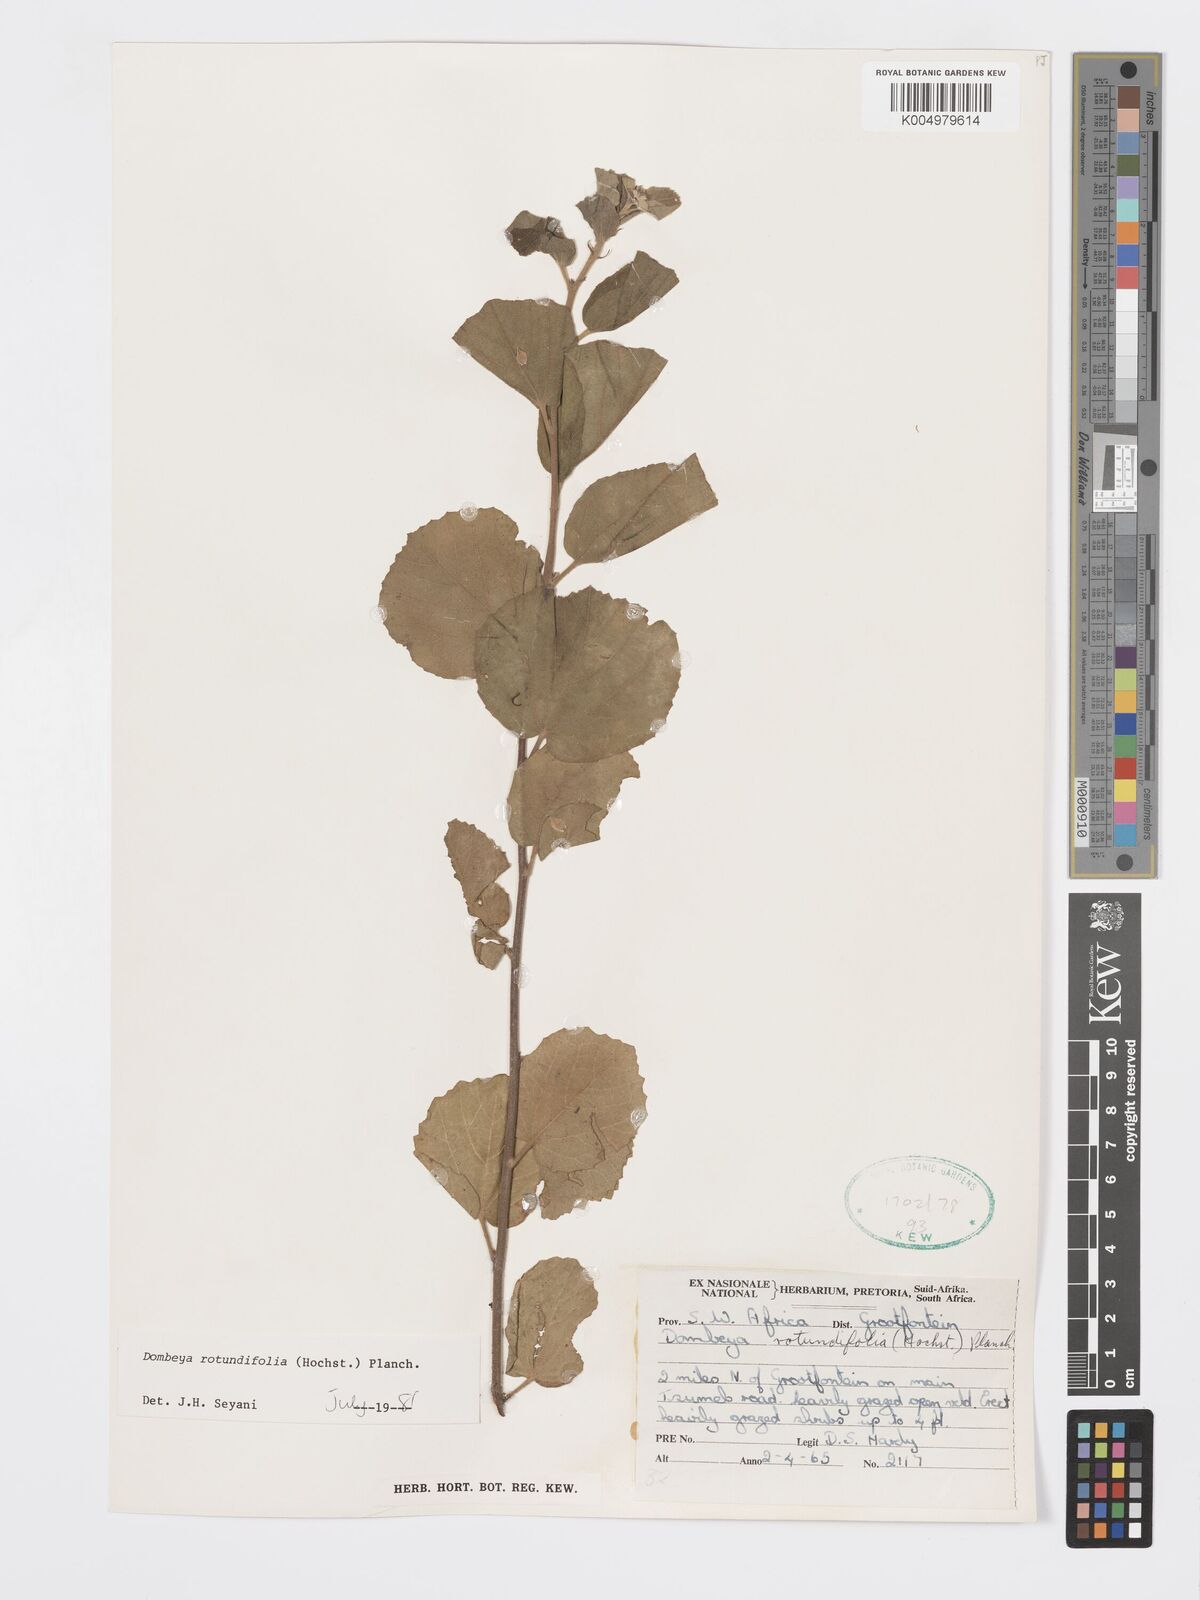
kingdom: Plantae
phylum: Tracheophyta
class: Magnoliopsida
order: Malvales
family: Malvaceae
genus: Dombeya
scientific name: Dombeya rotundifolia
